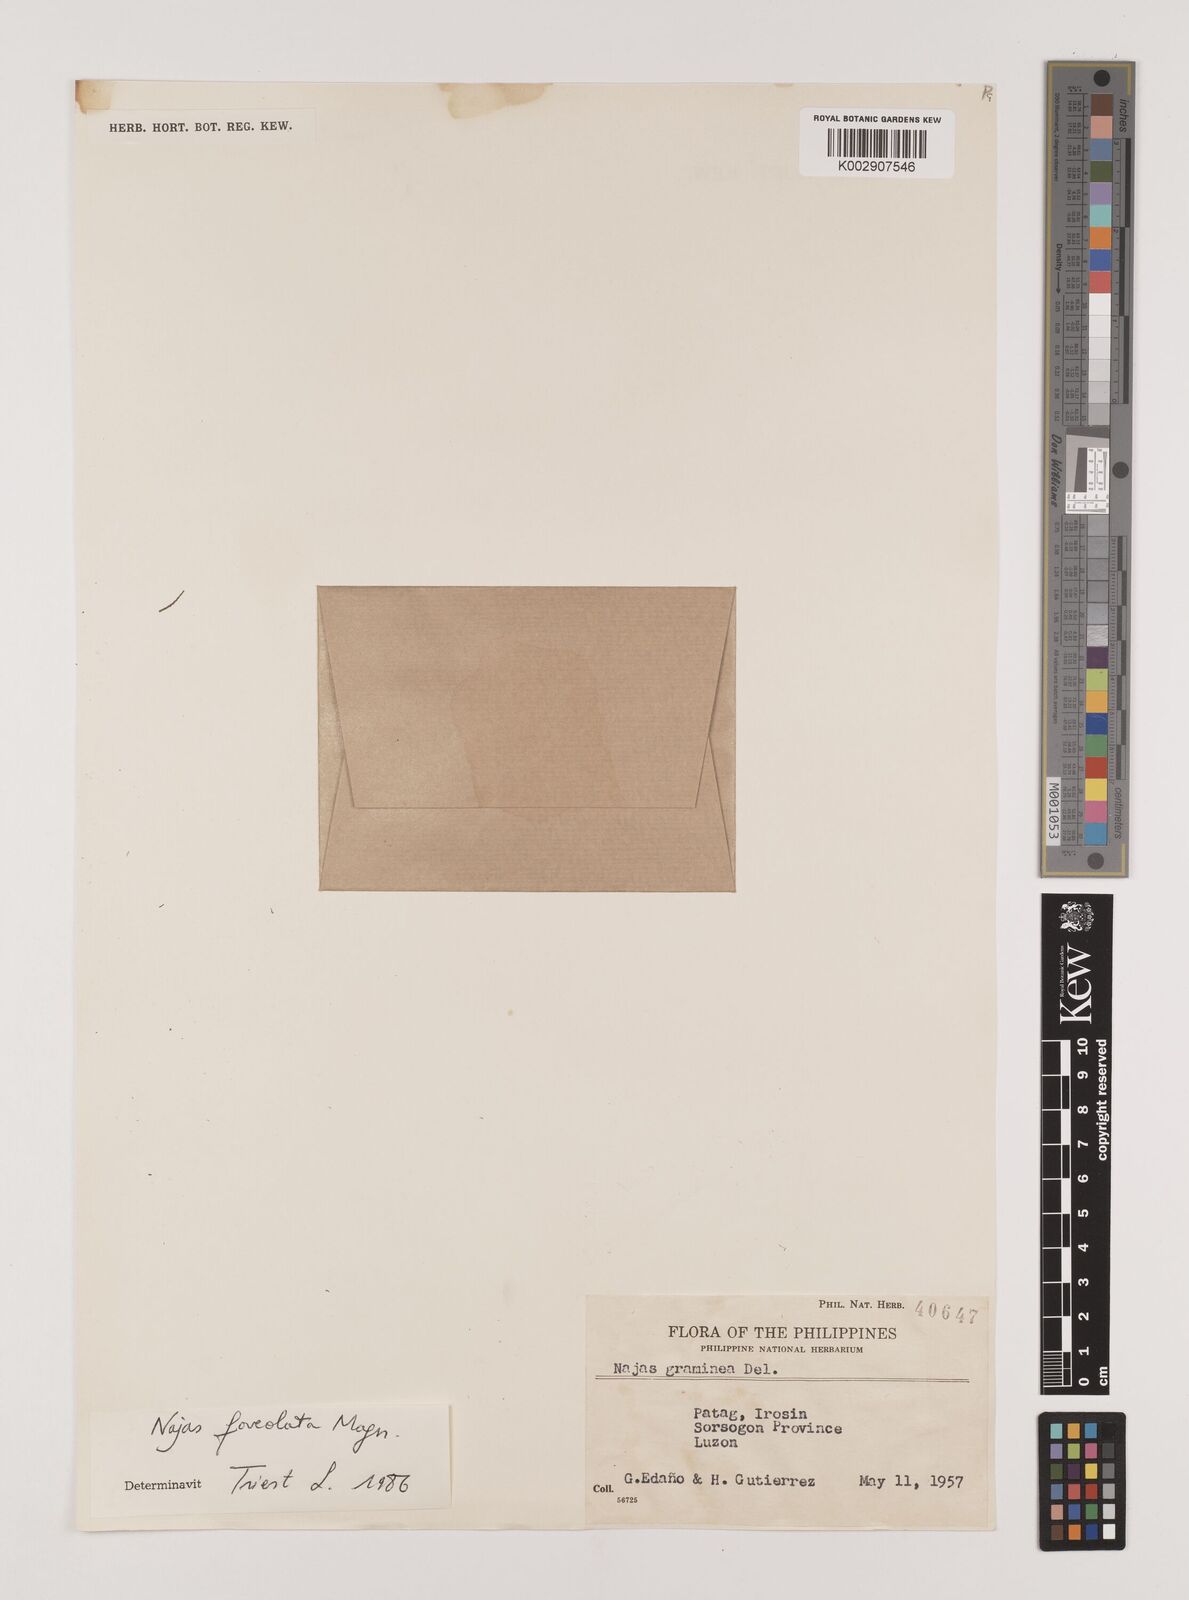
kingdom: Plantae
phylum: Tracheophyta
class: Liliopsida
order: Alismatales
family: Hydrocharitaceae
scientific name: Hydrocharitaceae
